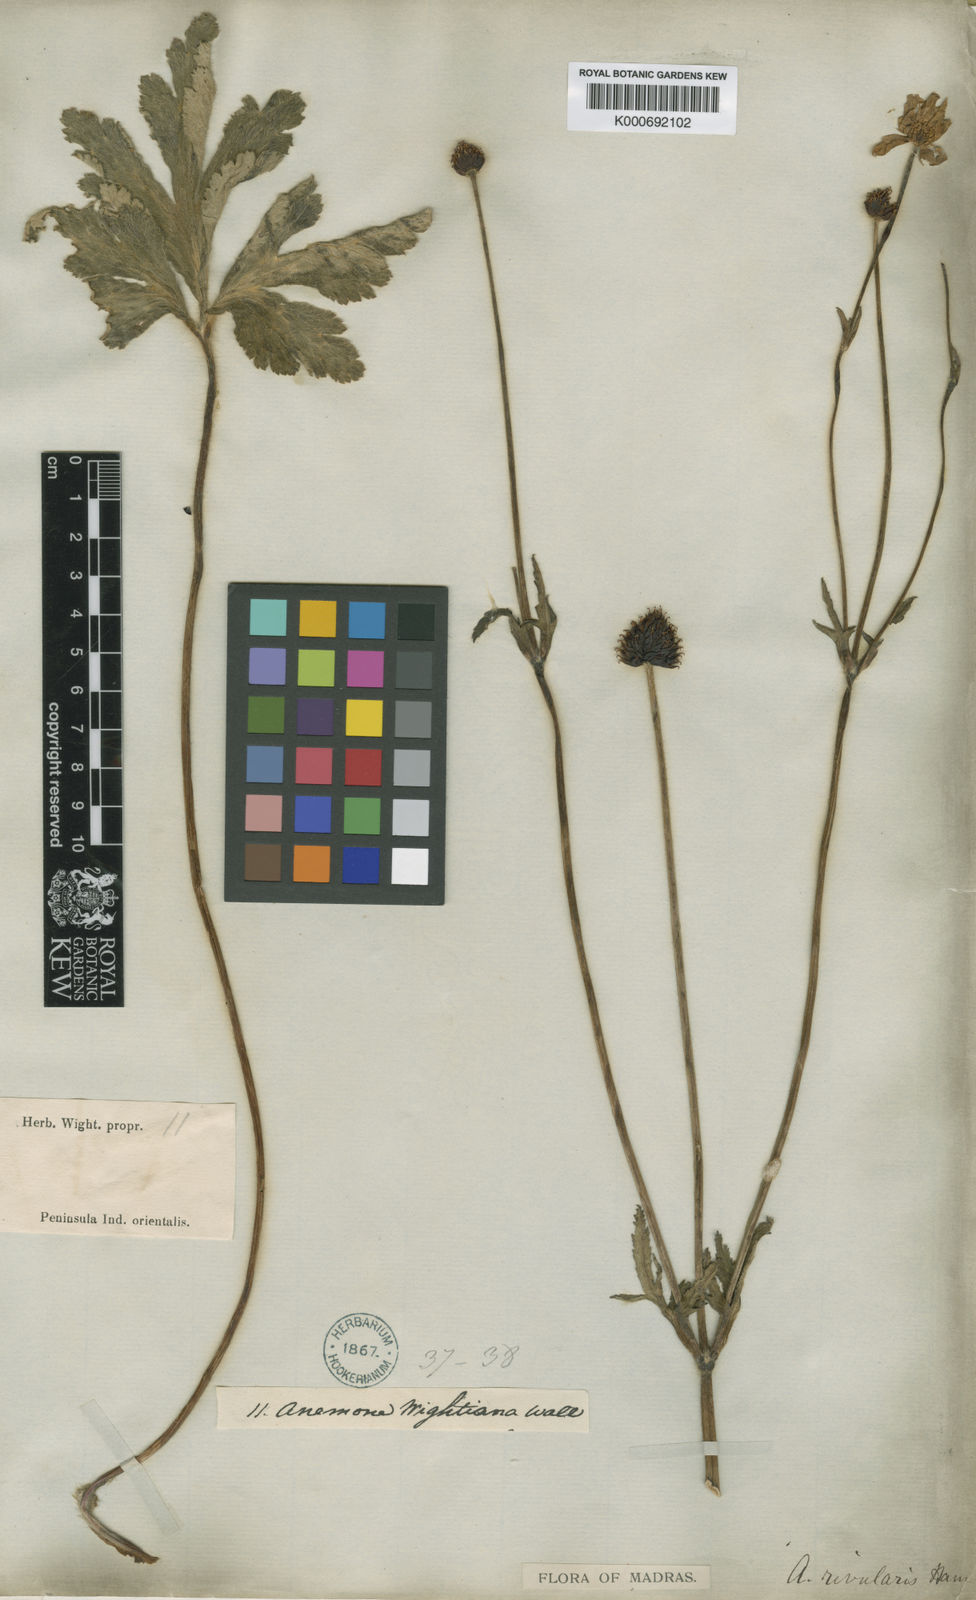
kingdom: Plantae
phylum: Tracheophyta
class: Magnoliopsida
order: Ranunculales
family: Ranunculaceae
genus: Eriocapitella
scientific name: Eriocapitella rivularis
